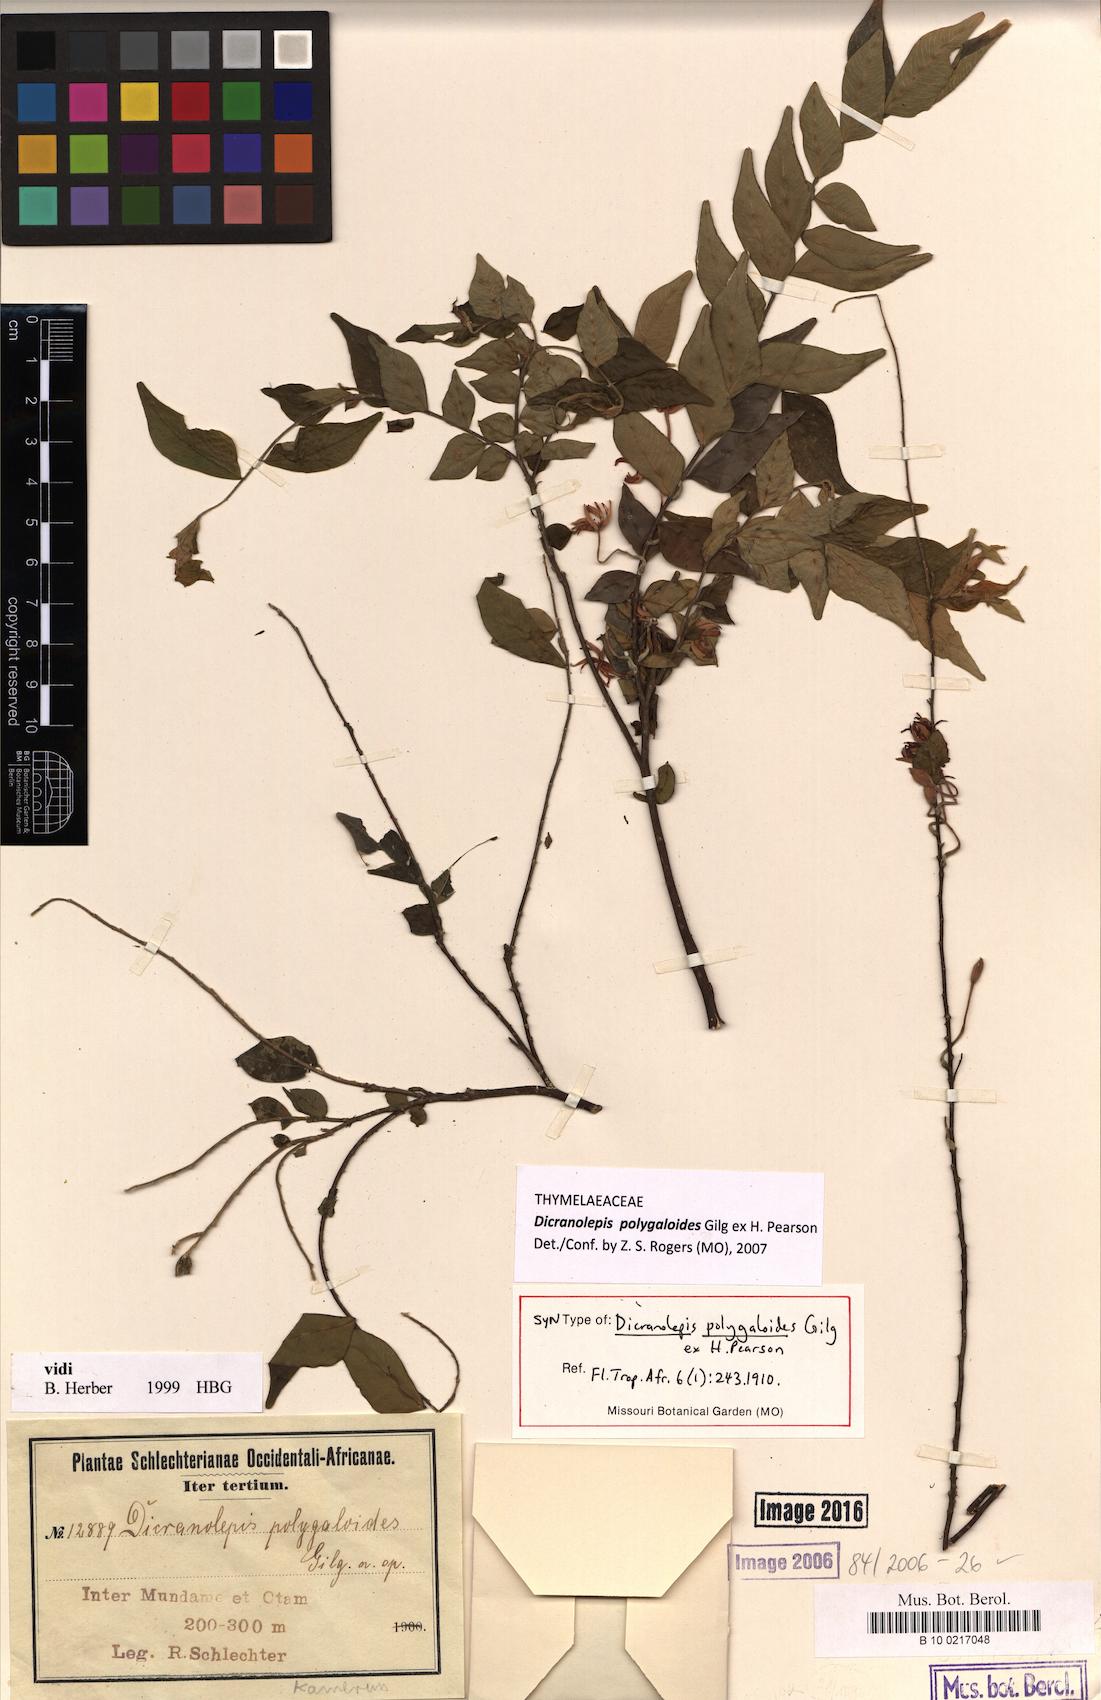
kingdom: Plantae
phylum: Tracheophyta
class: Magnoliopsida
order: Malvales
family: Thymelaeaceae
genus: Dicranolepis
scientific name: Dicranolepis polygaloides
